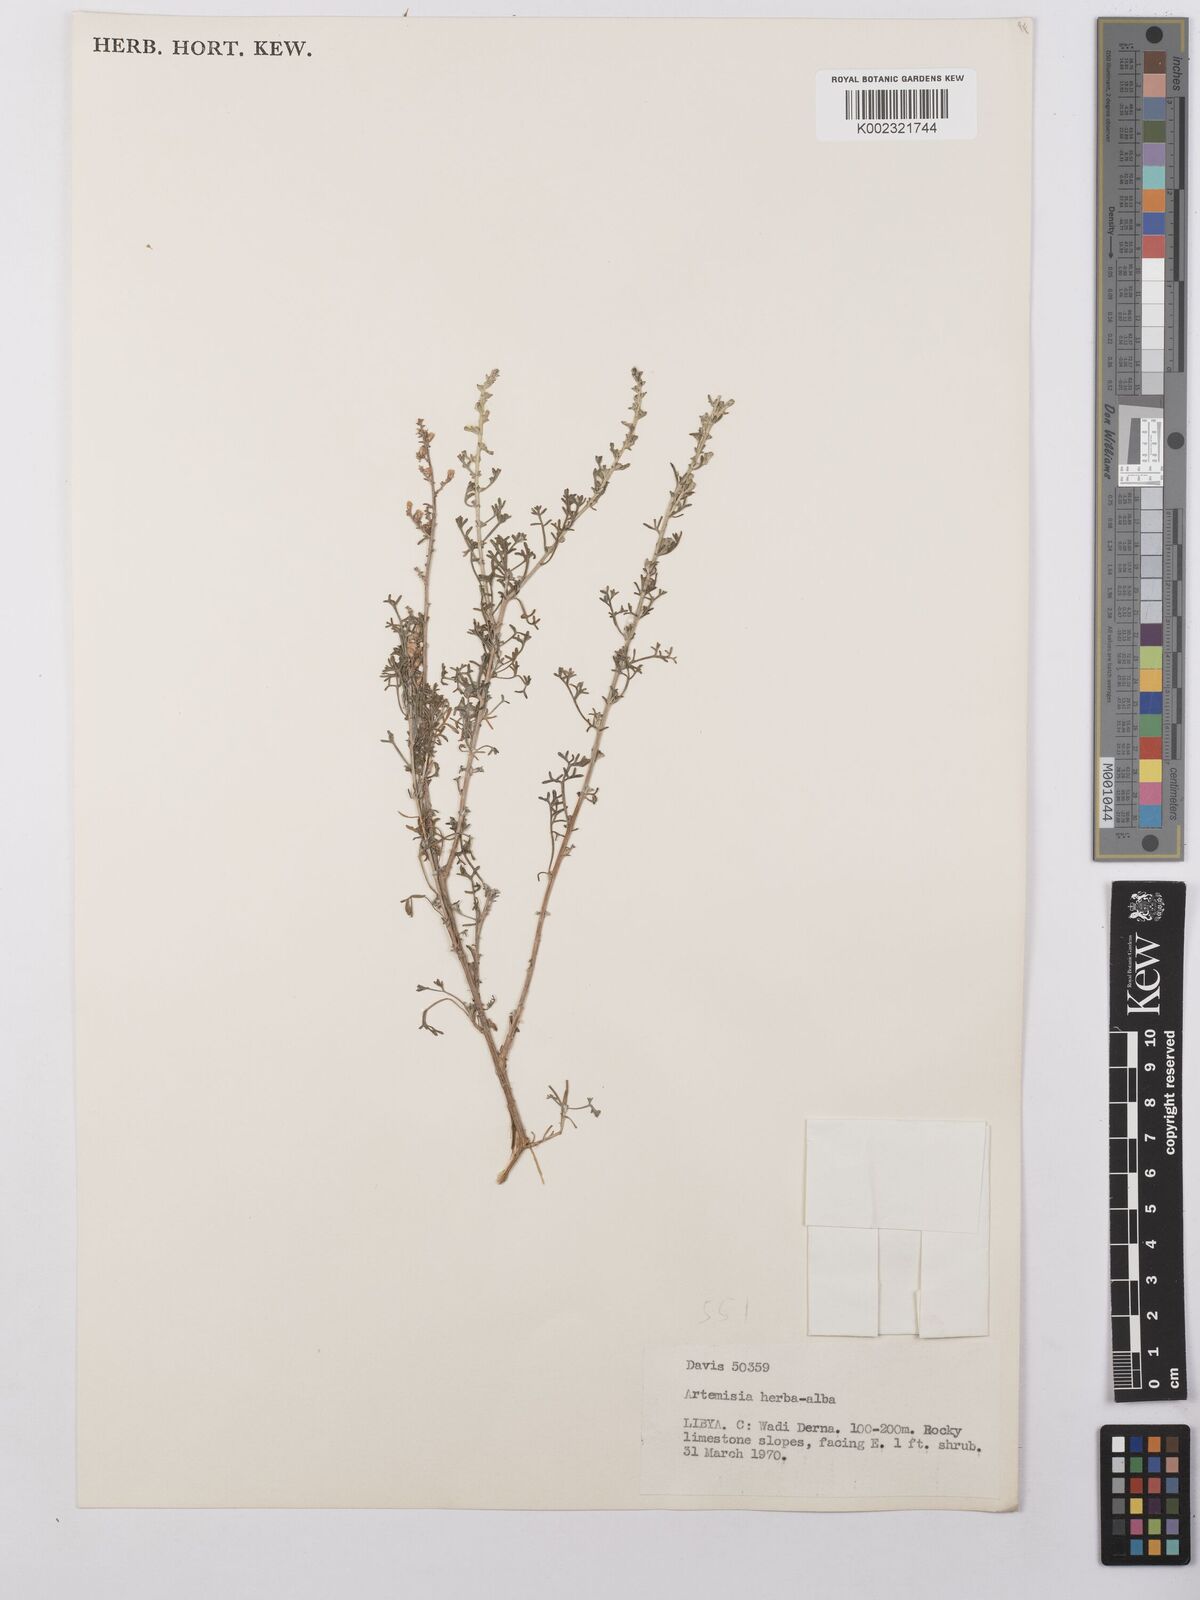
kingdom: Plantae
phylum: Tracheophyta
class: Magnoliopsida
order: Asterales
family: Asteraceae
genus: Artemisia
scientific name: Artemisia herba-alba
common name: White wormwood
